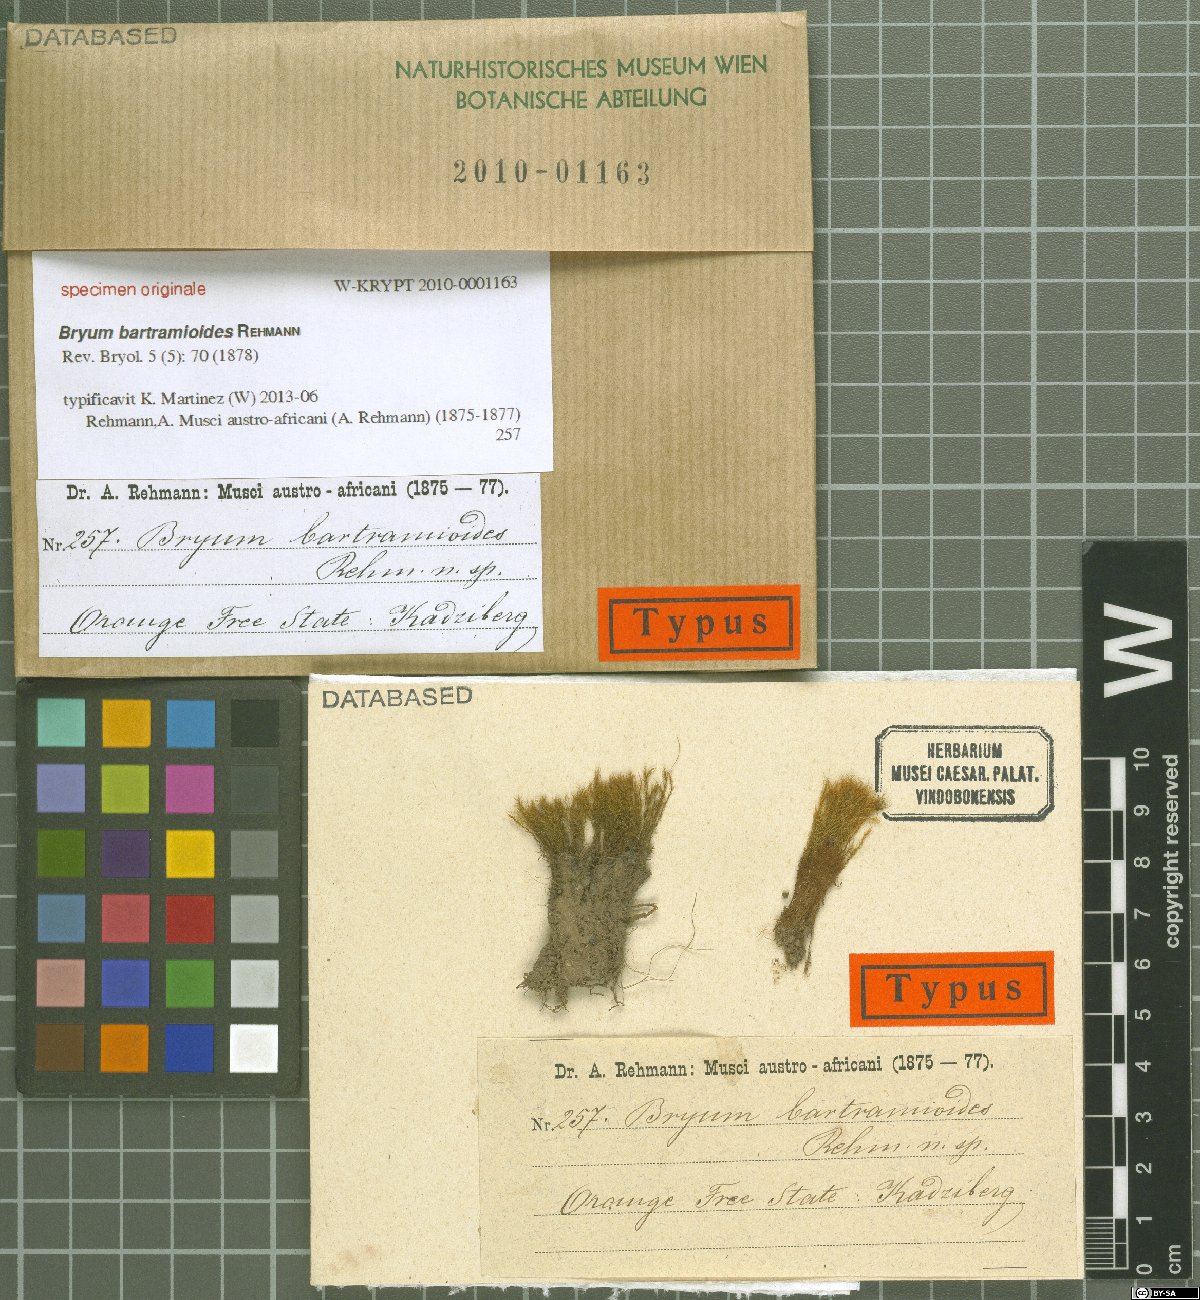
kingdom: Plantae
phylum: Bryophyta
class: Bryopsida
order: Bryales
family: Bryaceae
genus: Bryum
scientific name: Bryum
